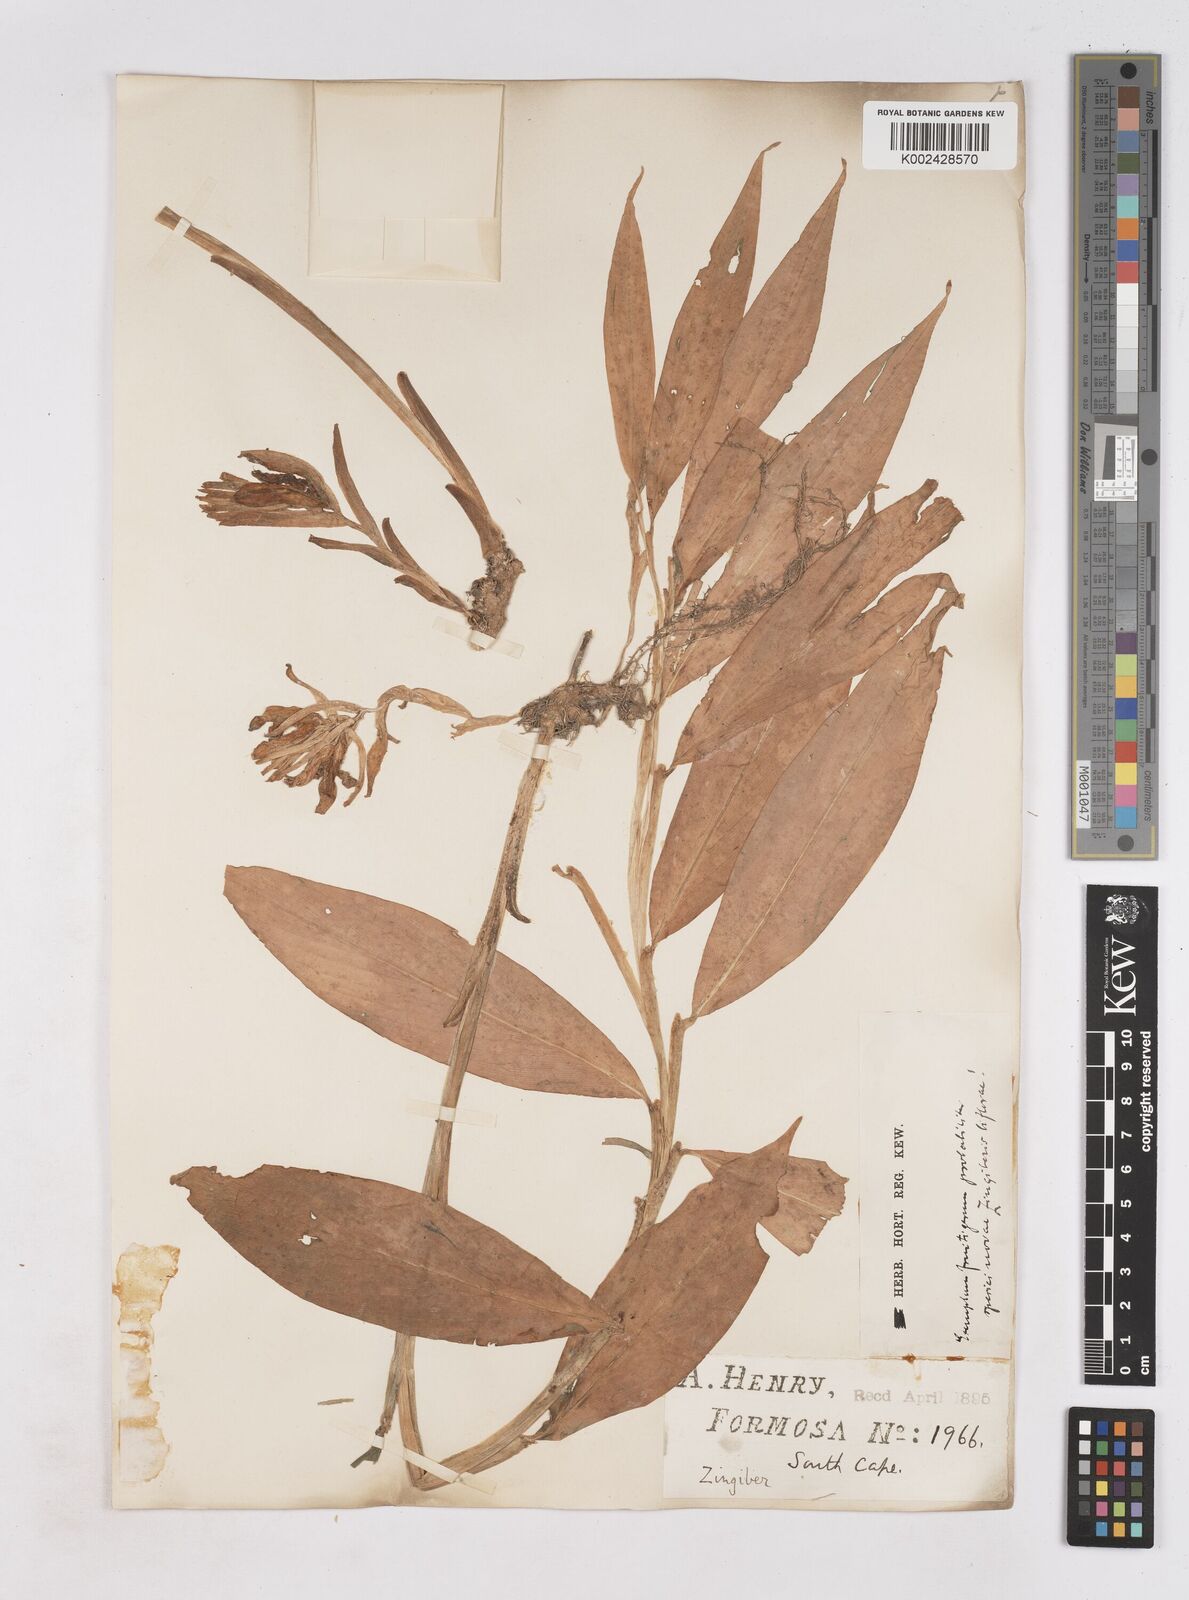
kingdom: Plantae
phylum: Tracheophyta
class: Liliopsida
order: Zingiberales
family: Zingiberaceae
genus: Zingiber
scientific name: Zingiber
